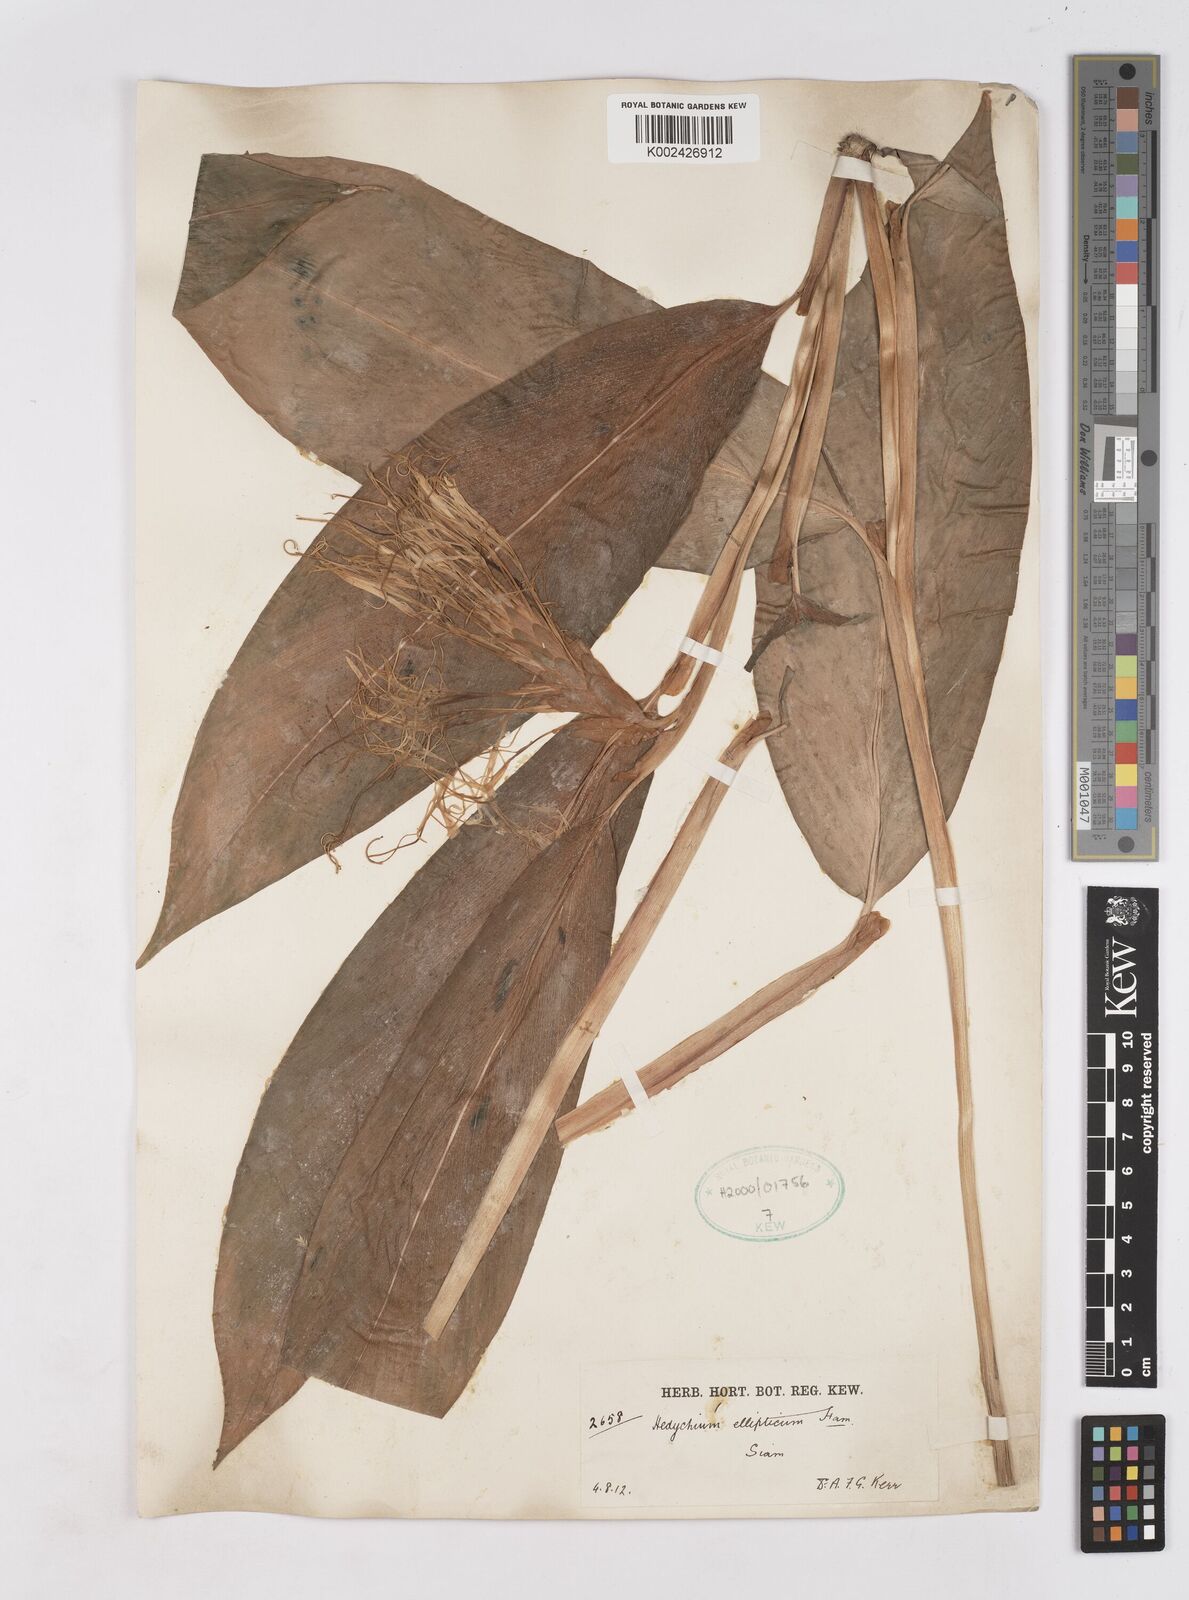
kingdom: Plantae
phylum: Tracheophyta
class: Liliopsida
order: Zingiberales
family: Zingiberaceae
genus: Hedychium
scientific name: Hedychium ellipticum
